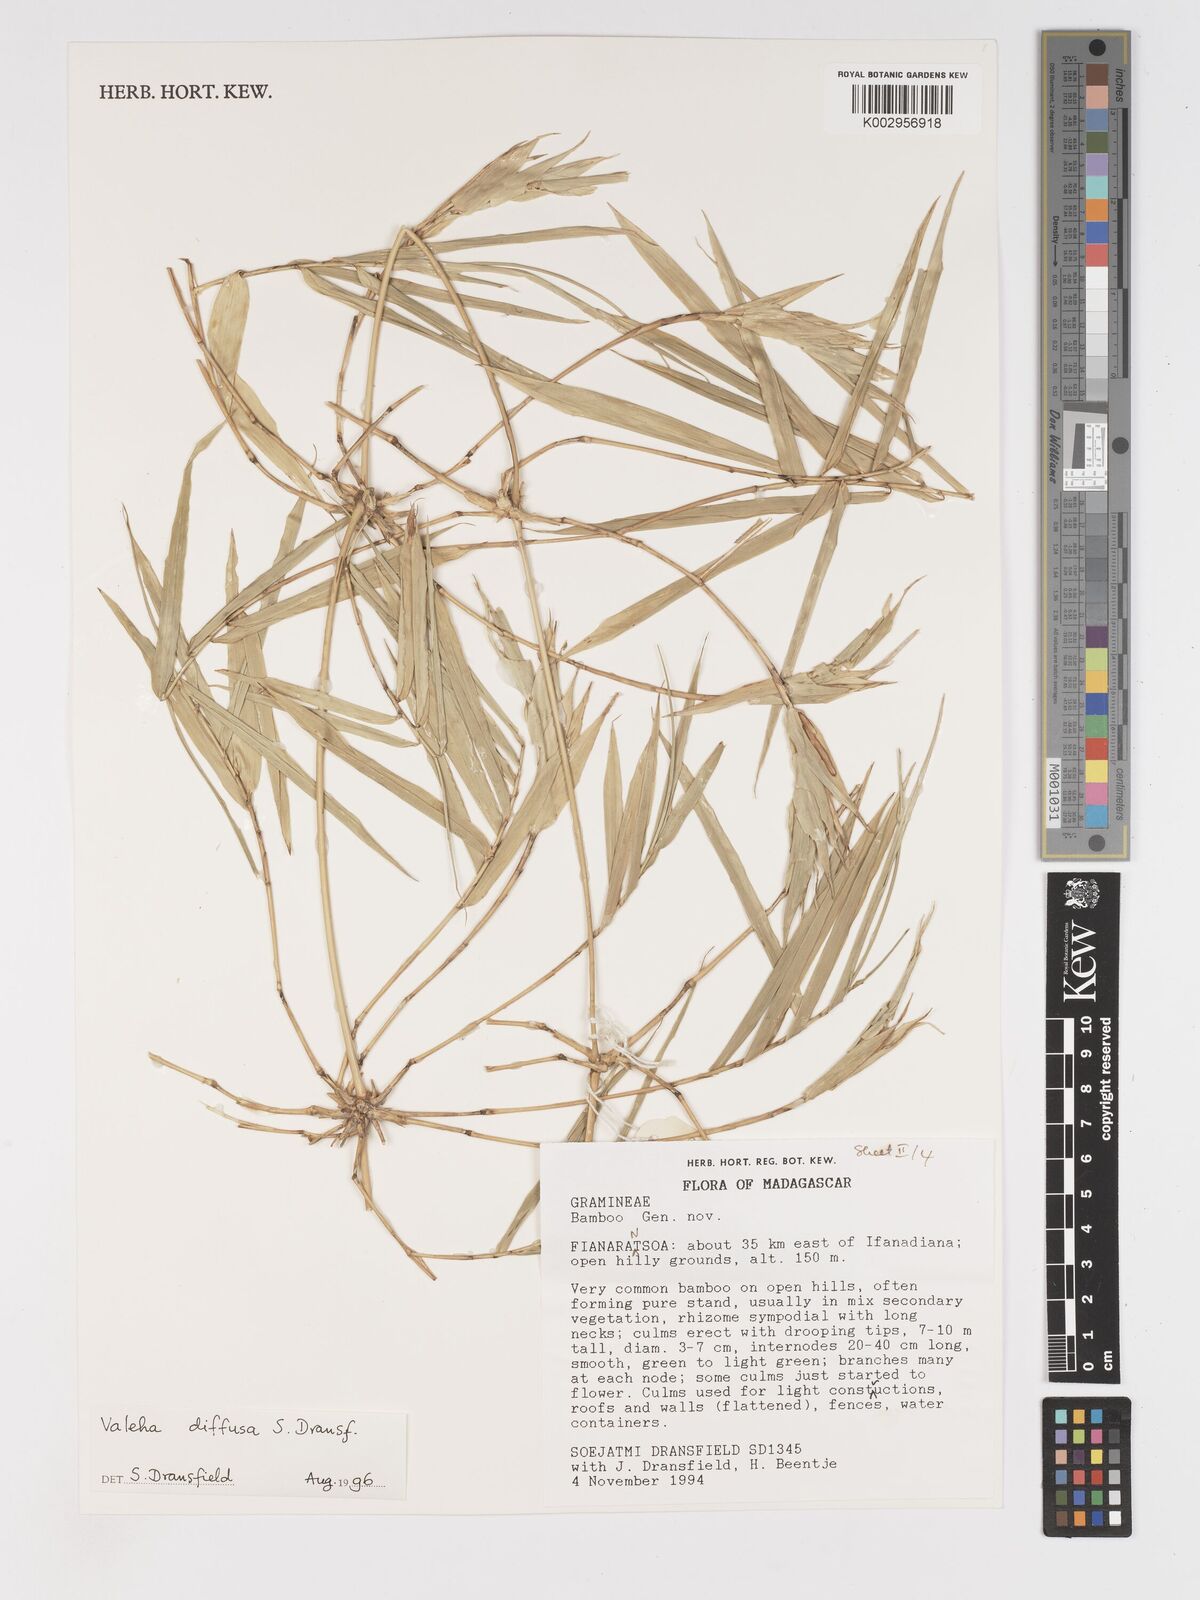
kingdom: Plantae
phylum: Tracheophyta
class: Liliopsida
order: Poales
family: Poaceae
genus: Valiha
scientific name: Valiha diffusa
